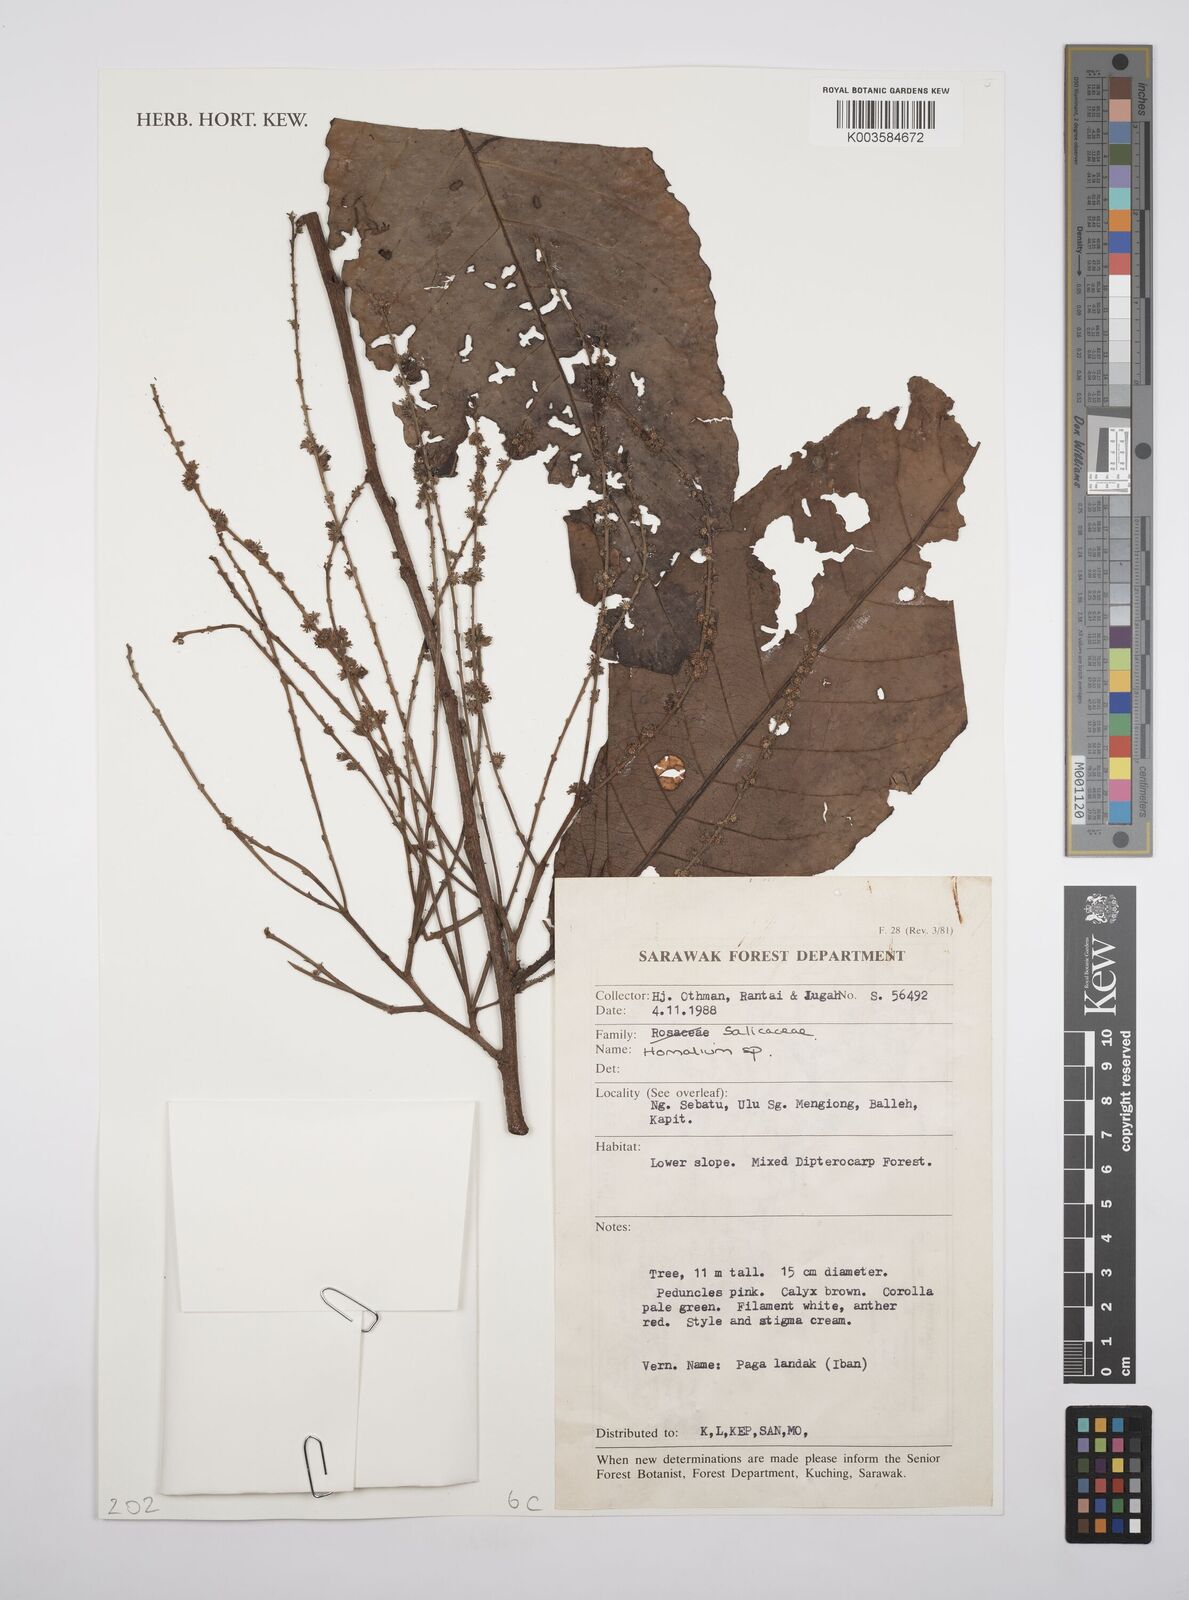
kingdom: Plantae
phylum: Tracheophyta
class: Magnoliopsida
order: Malpighiales
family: Salicaceae
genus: Homalium
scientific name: Homalium
